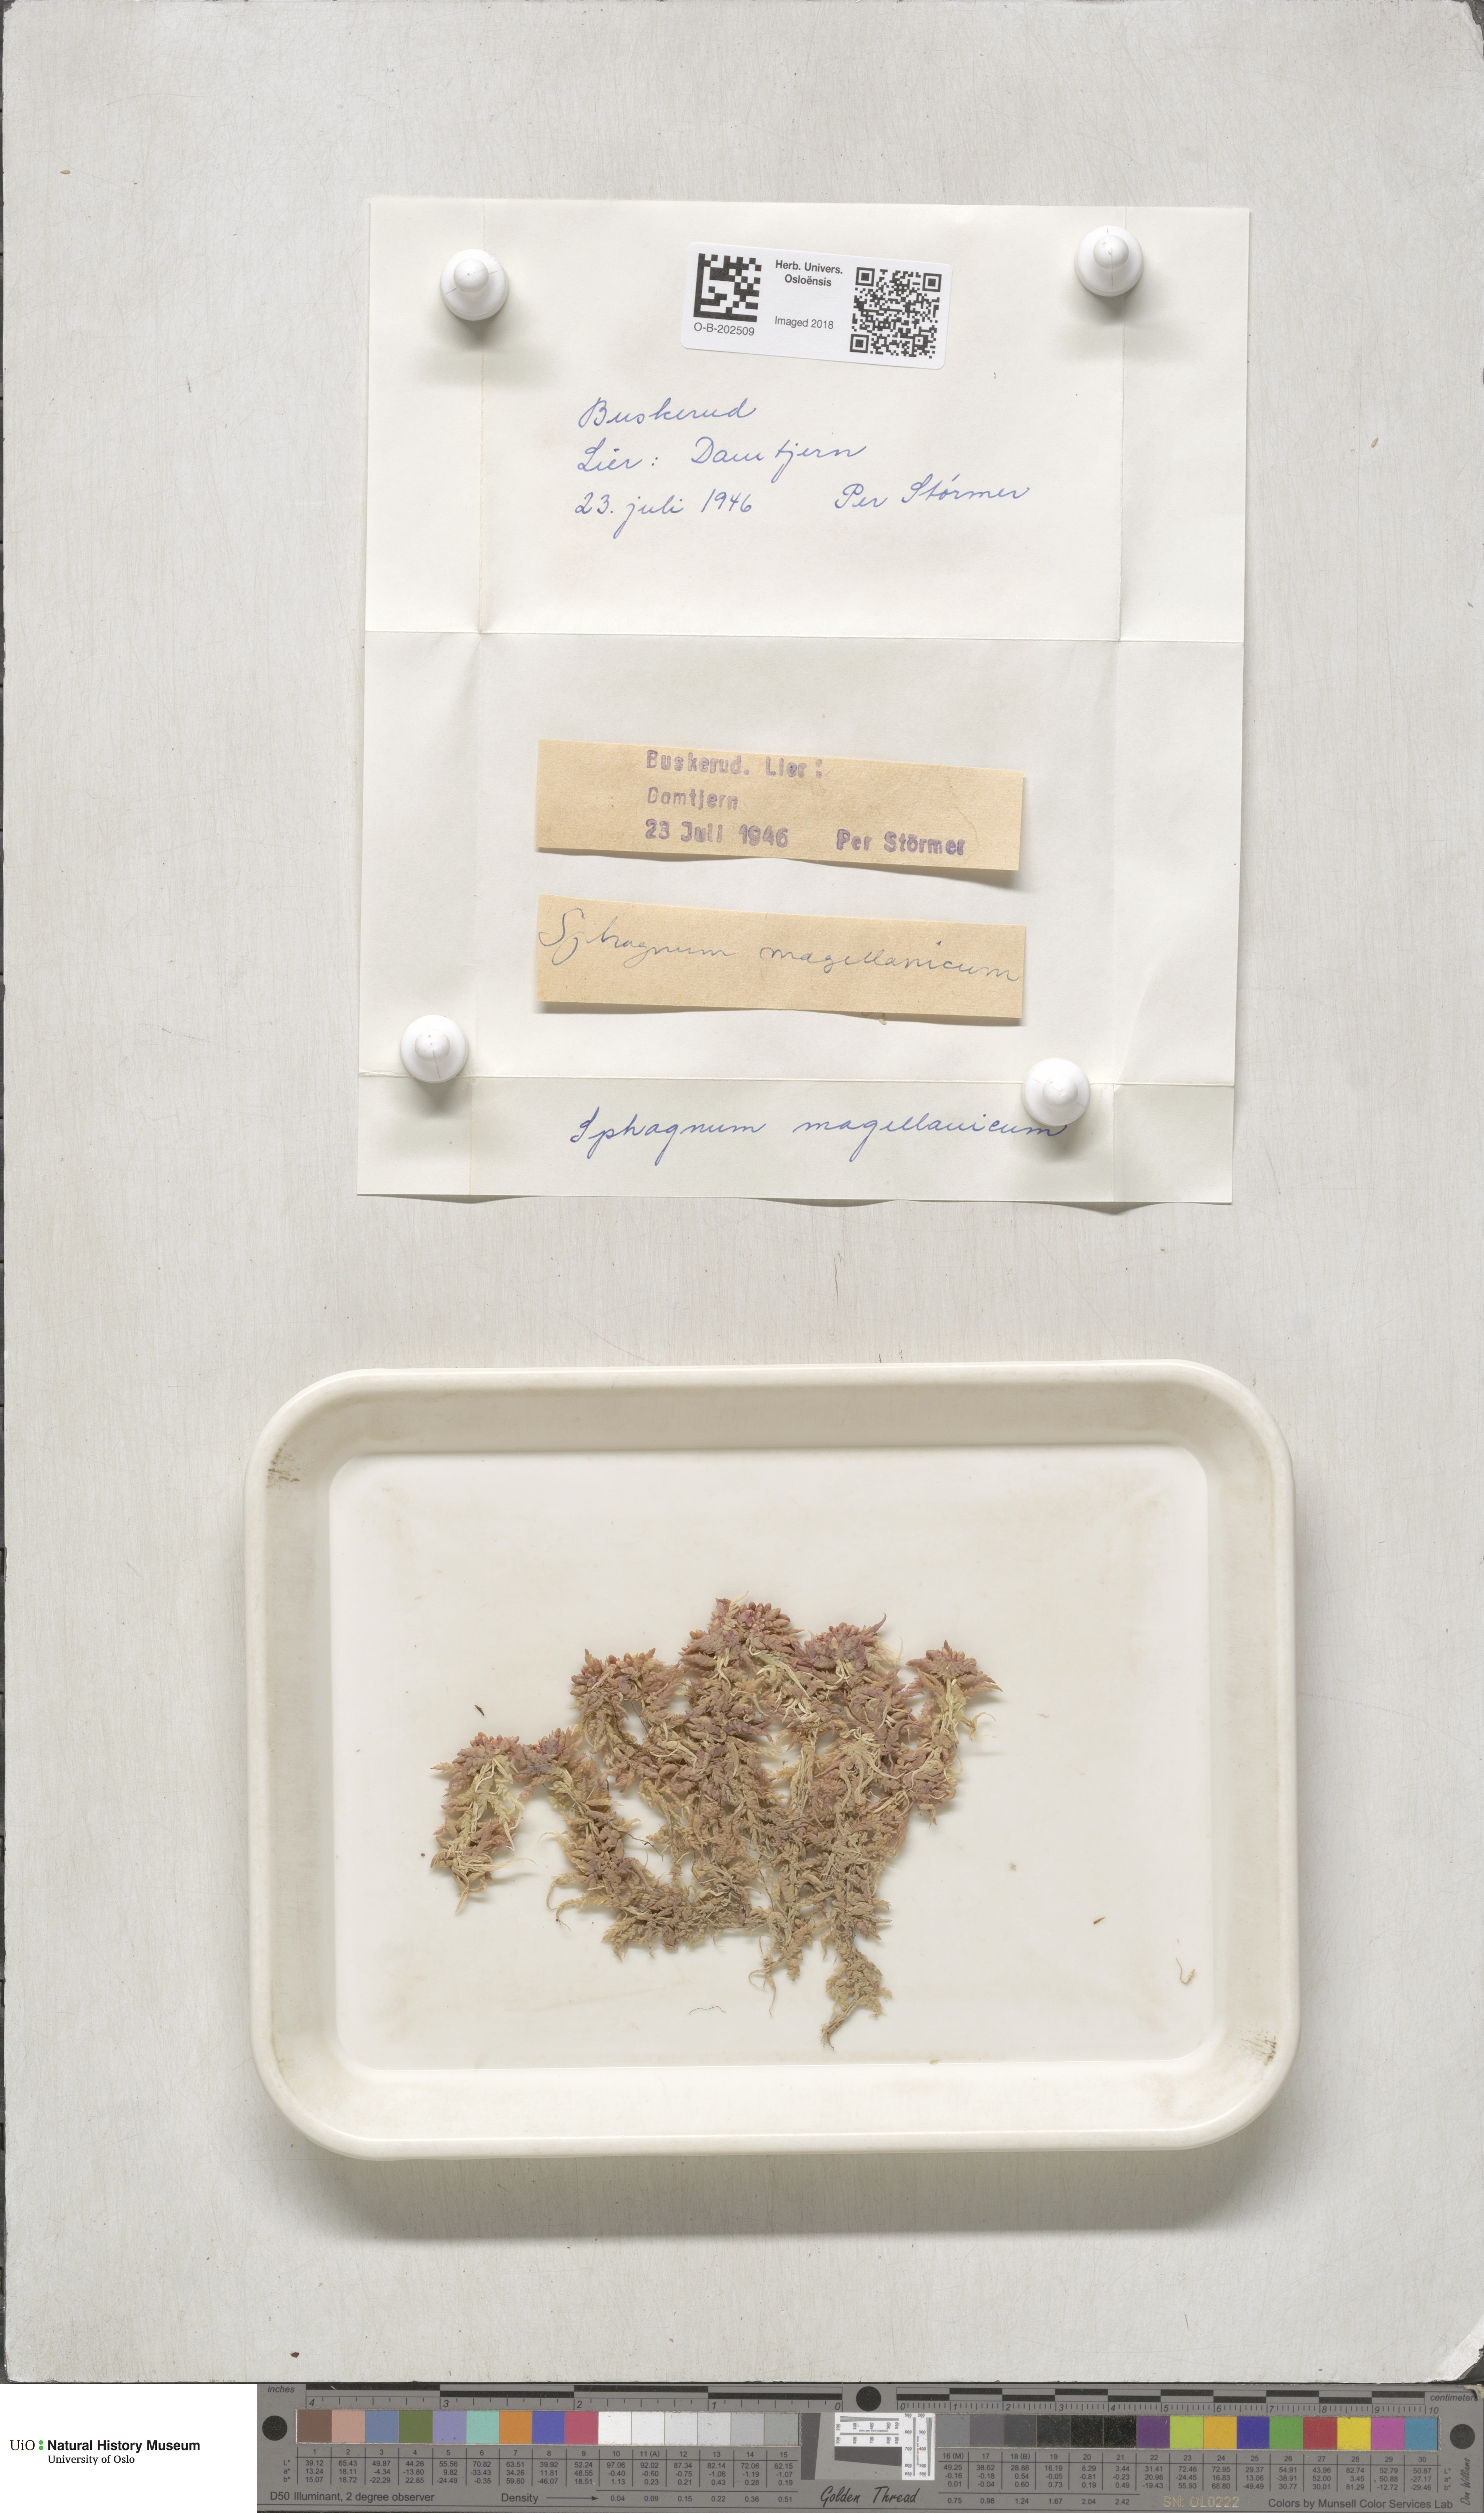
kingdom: Plantae
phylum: Bryophyta
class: Sphagnopsida
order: Sphagnales
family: Sphagnaceae
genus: Sphagnum
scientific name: Sphagnum magellanicum
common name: Magellan's peat moss
